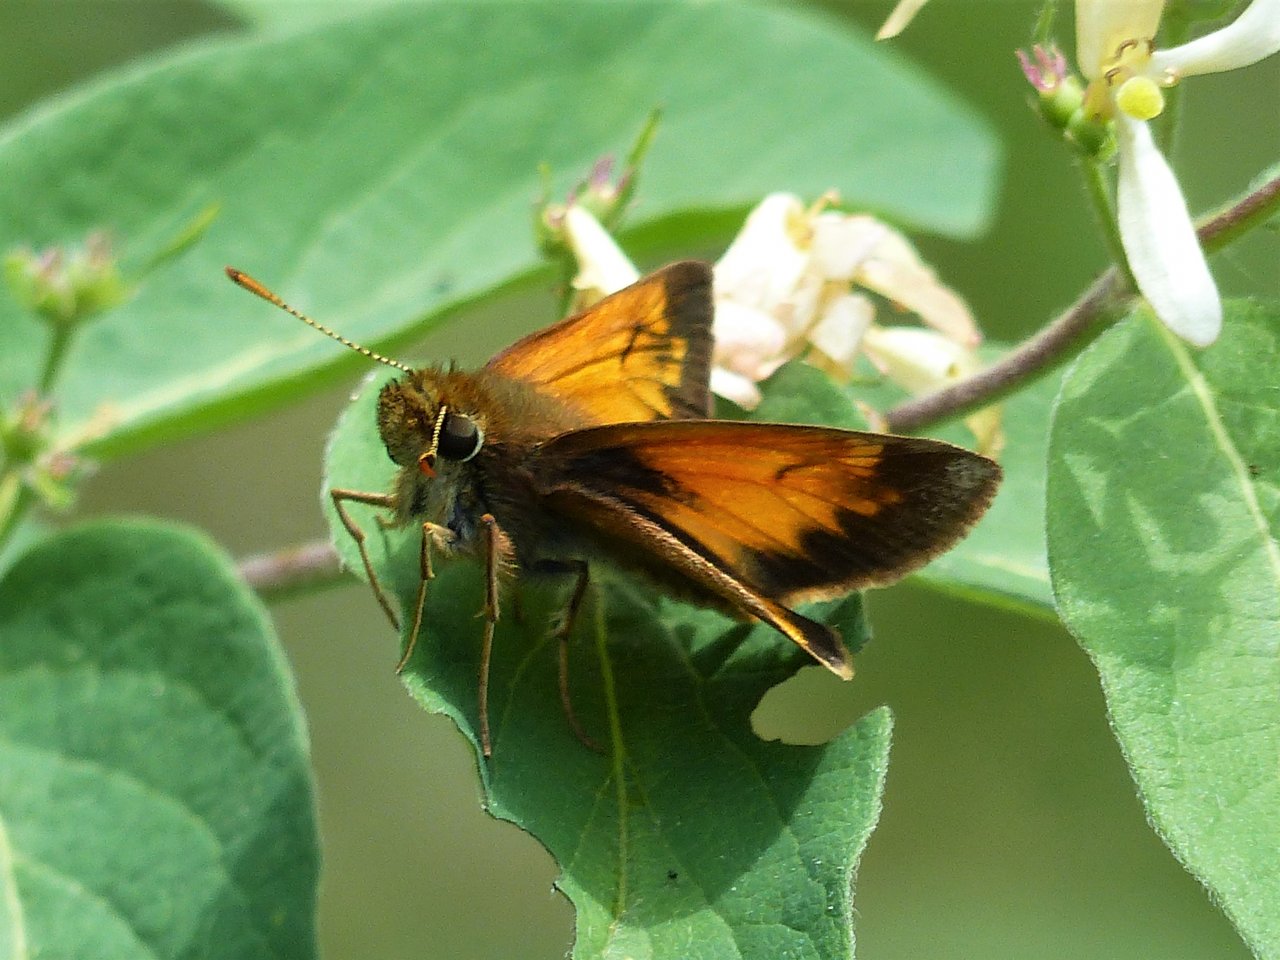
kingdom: Animalia
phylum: Arthropoda
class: Insecta
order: Lepidoptera
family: Hesperiidae
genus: Lon
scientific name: Lon hobomok
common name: Hobomok Skipper
